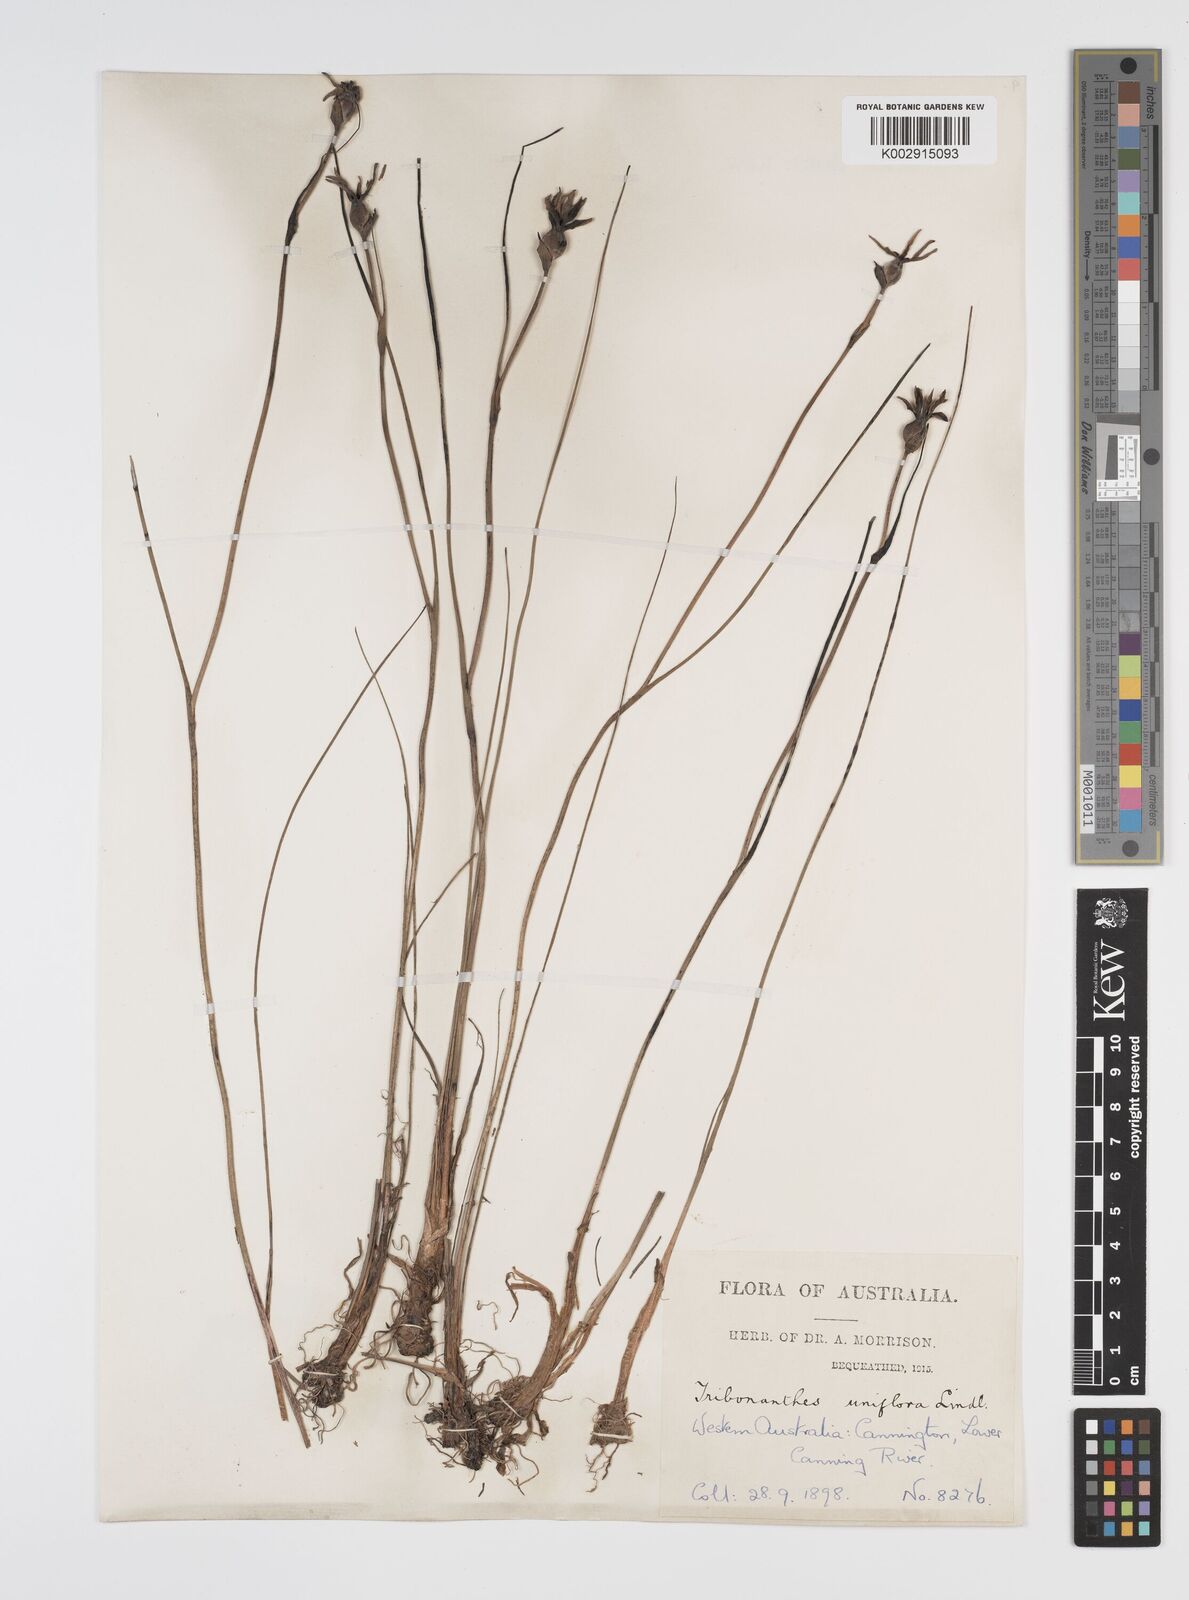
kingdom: Plantae
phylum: Tracheophyta
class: Liliopsida
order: Commelinales
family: Haemodoraceae
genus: Tribonanthes
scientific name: Tribonanthes uniflora
